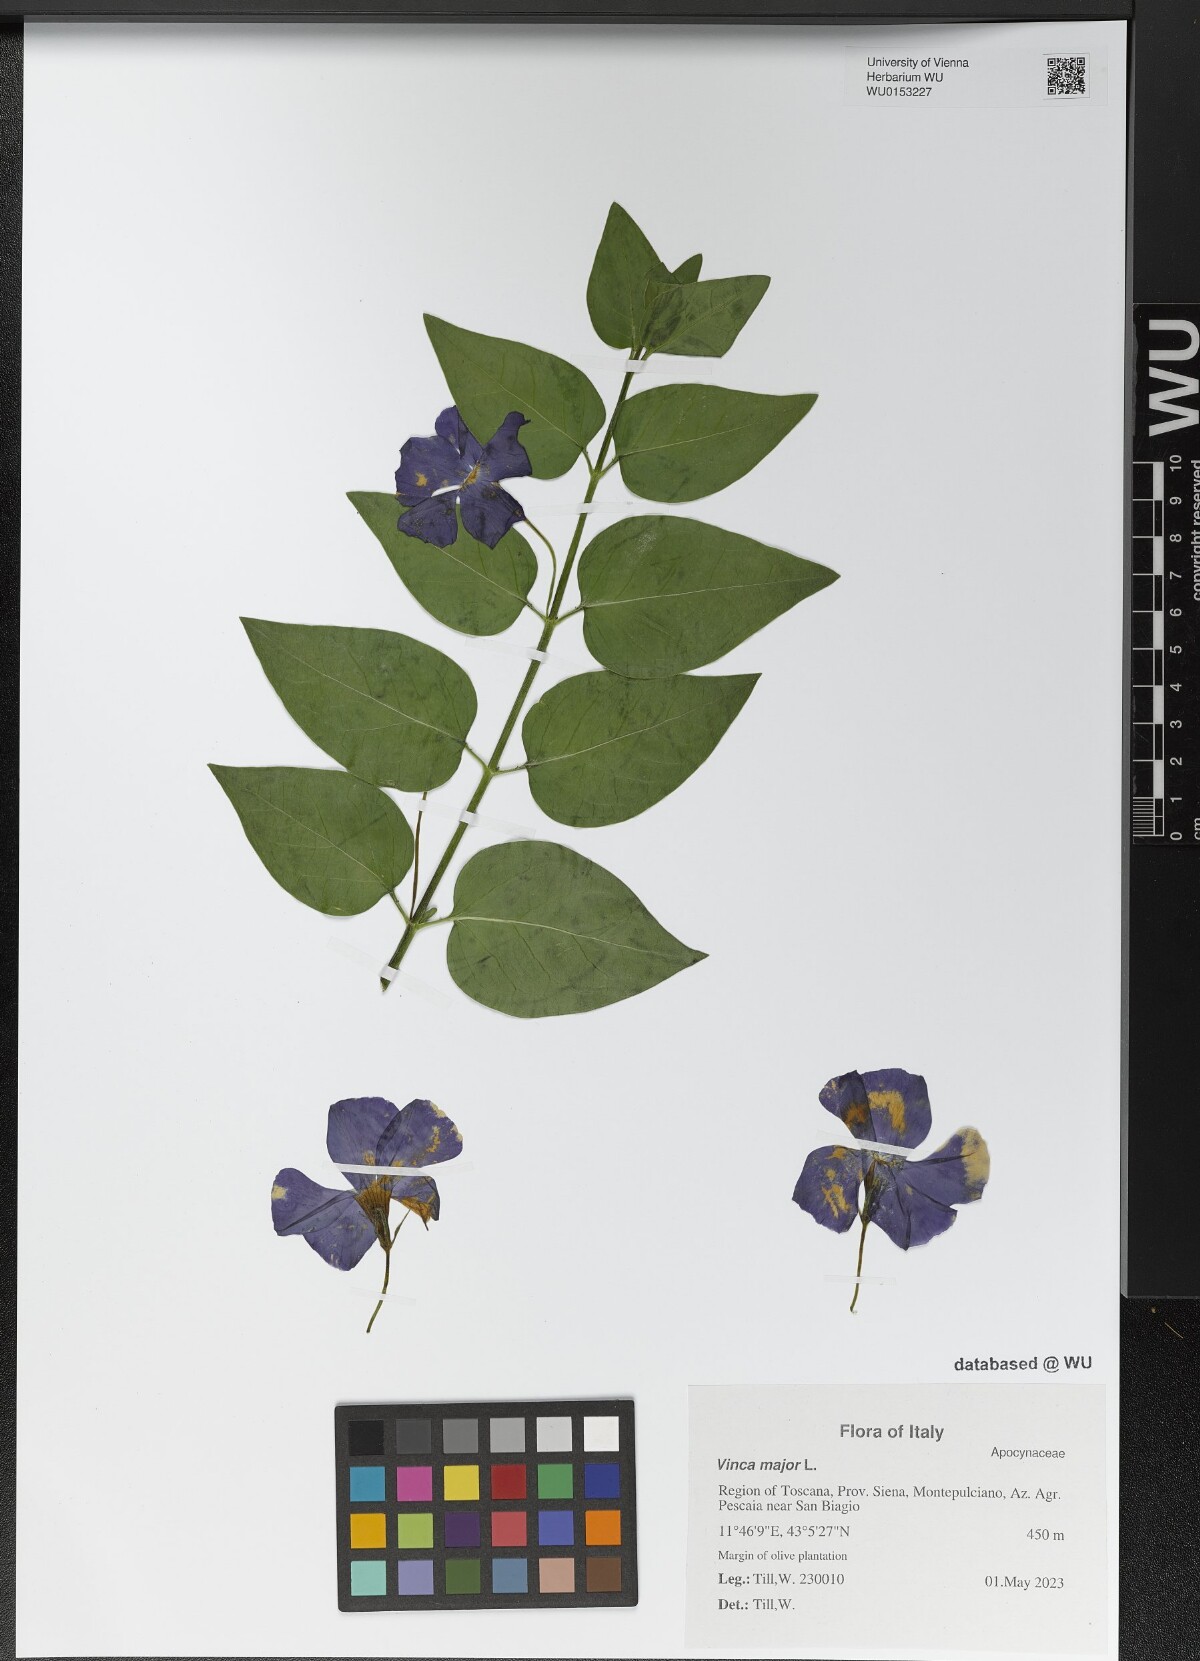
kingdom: Plantae
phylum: Tracheophyta
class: Magnoliopsida
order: Gentianales
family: Apocynaceae
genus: Vinca
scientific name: Vinca major
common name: Greater periwinkle
